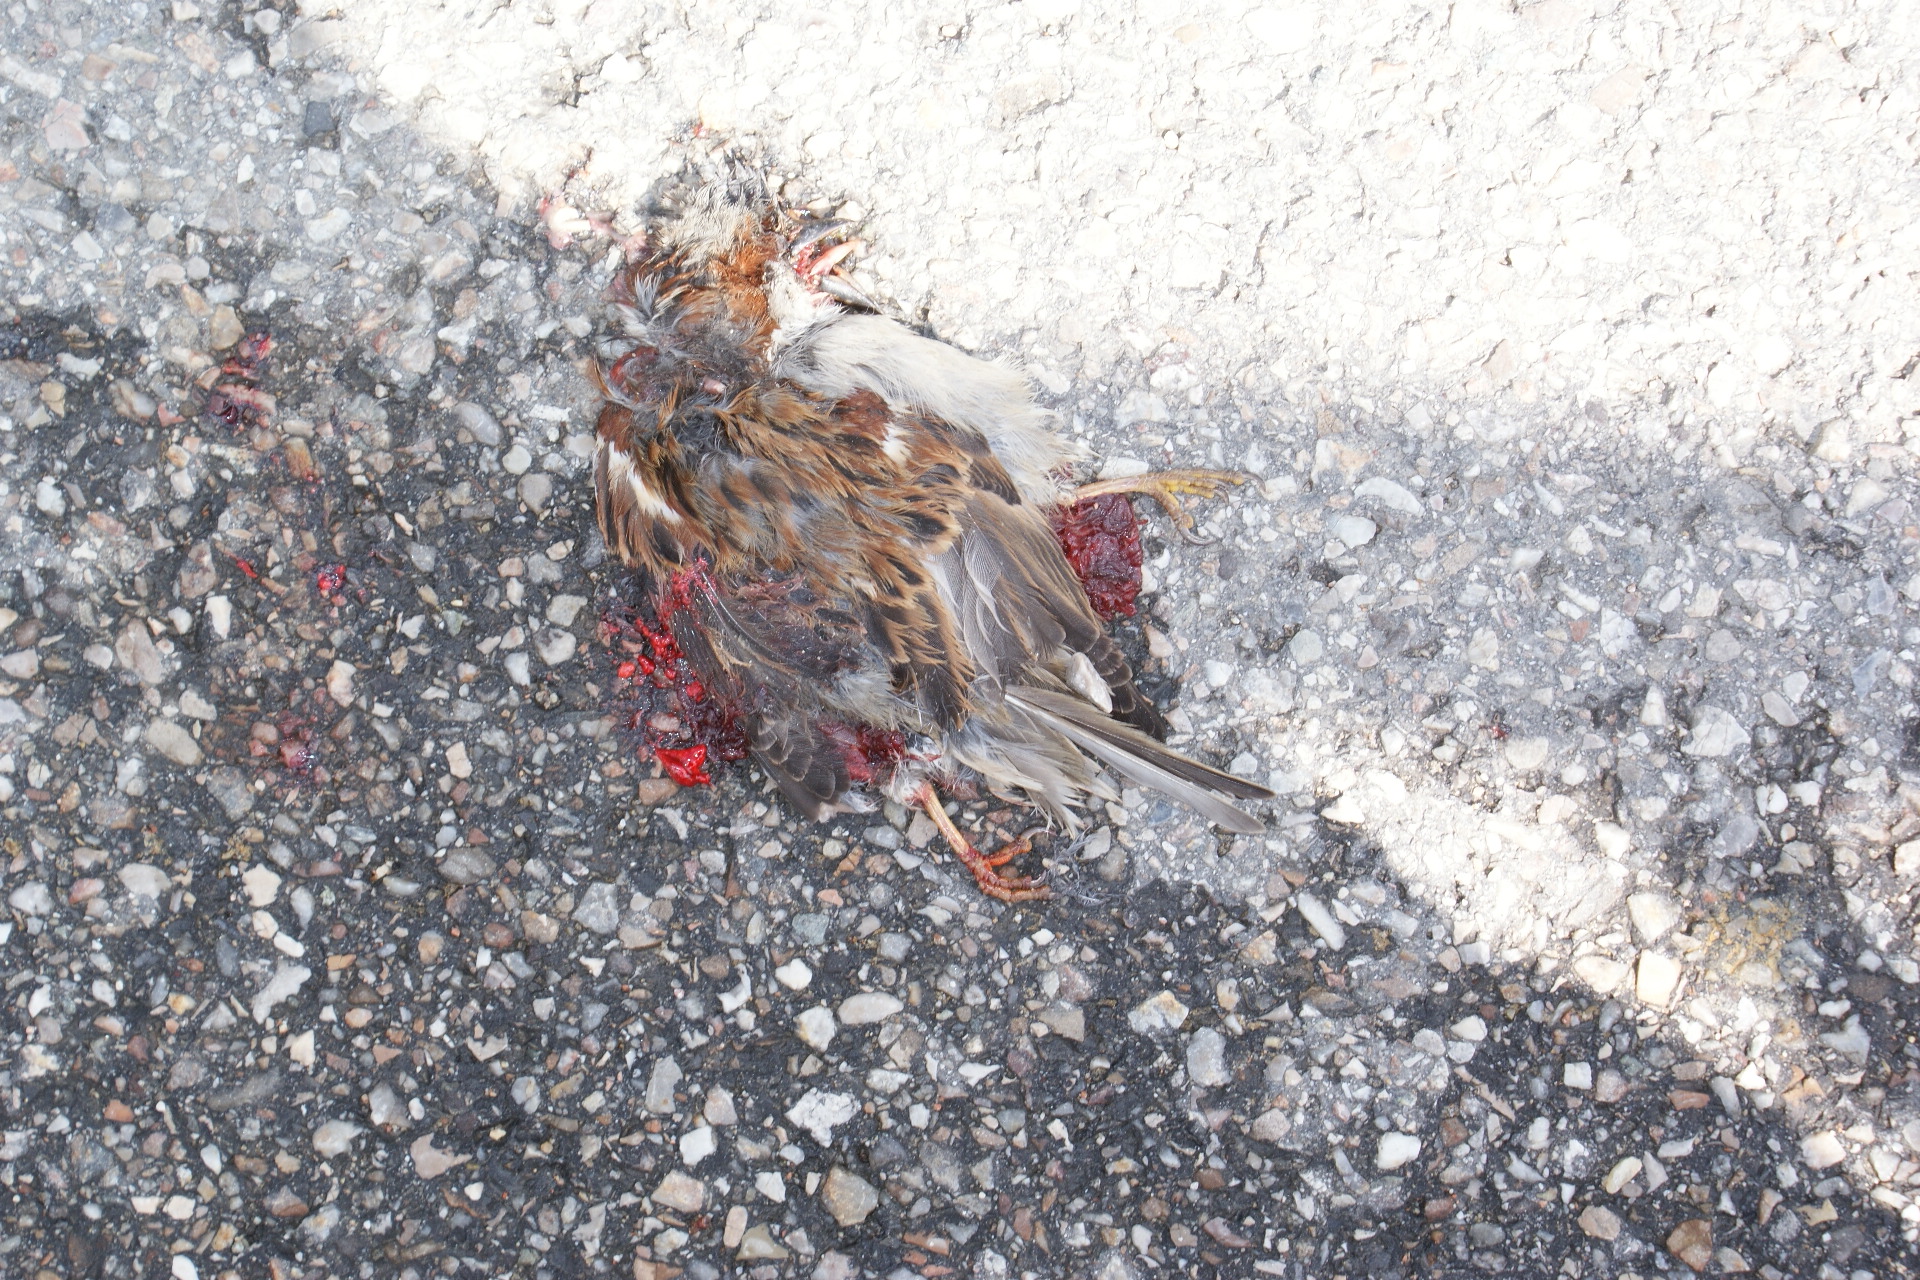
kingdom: Animalia
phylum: Chordata
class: Aves
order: Passeriformes
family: Passeridae
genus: Passer
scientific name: Passer montanus
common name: Eurasian tree sparrow
